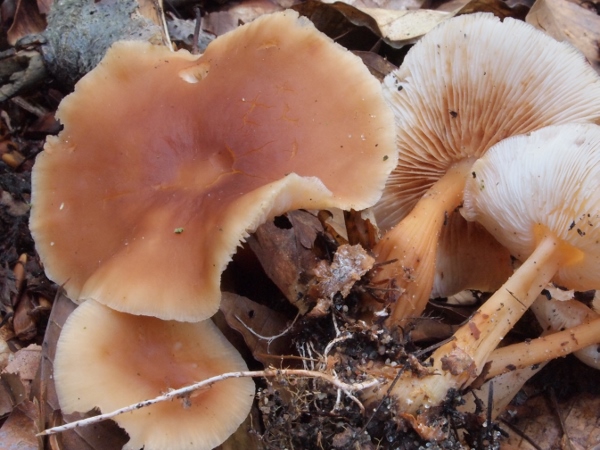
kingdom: Fungi
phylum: Basidiomycota
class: Agaricomycetes
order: Agaricales
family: Omphalotaceae
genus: Gymnopus
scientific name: Gymnopus dryophilus
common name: løv-fladhat
